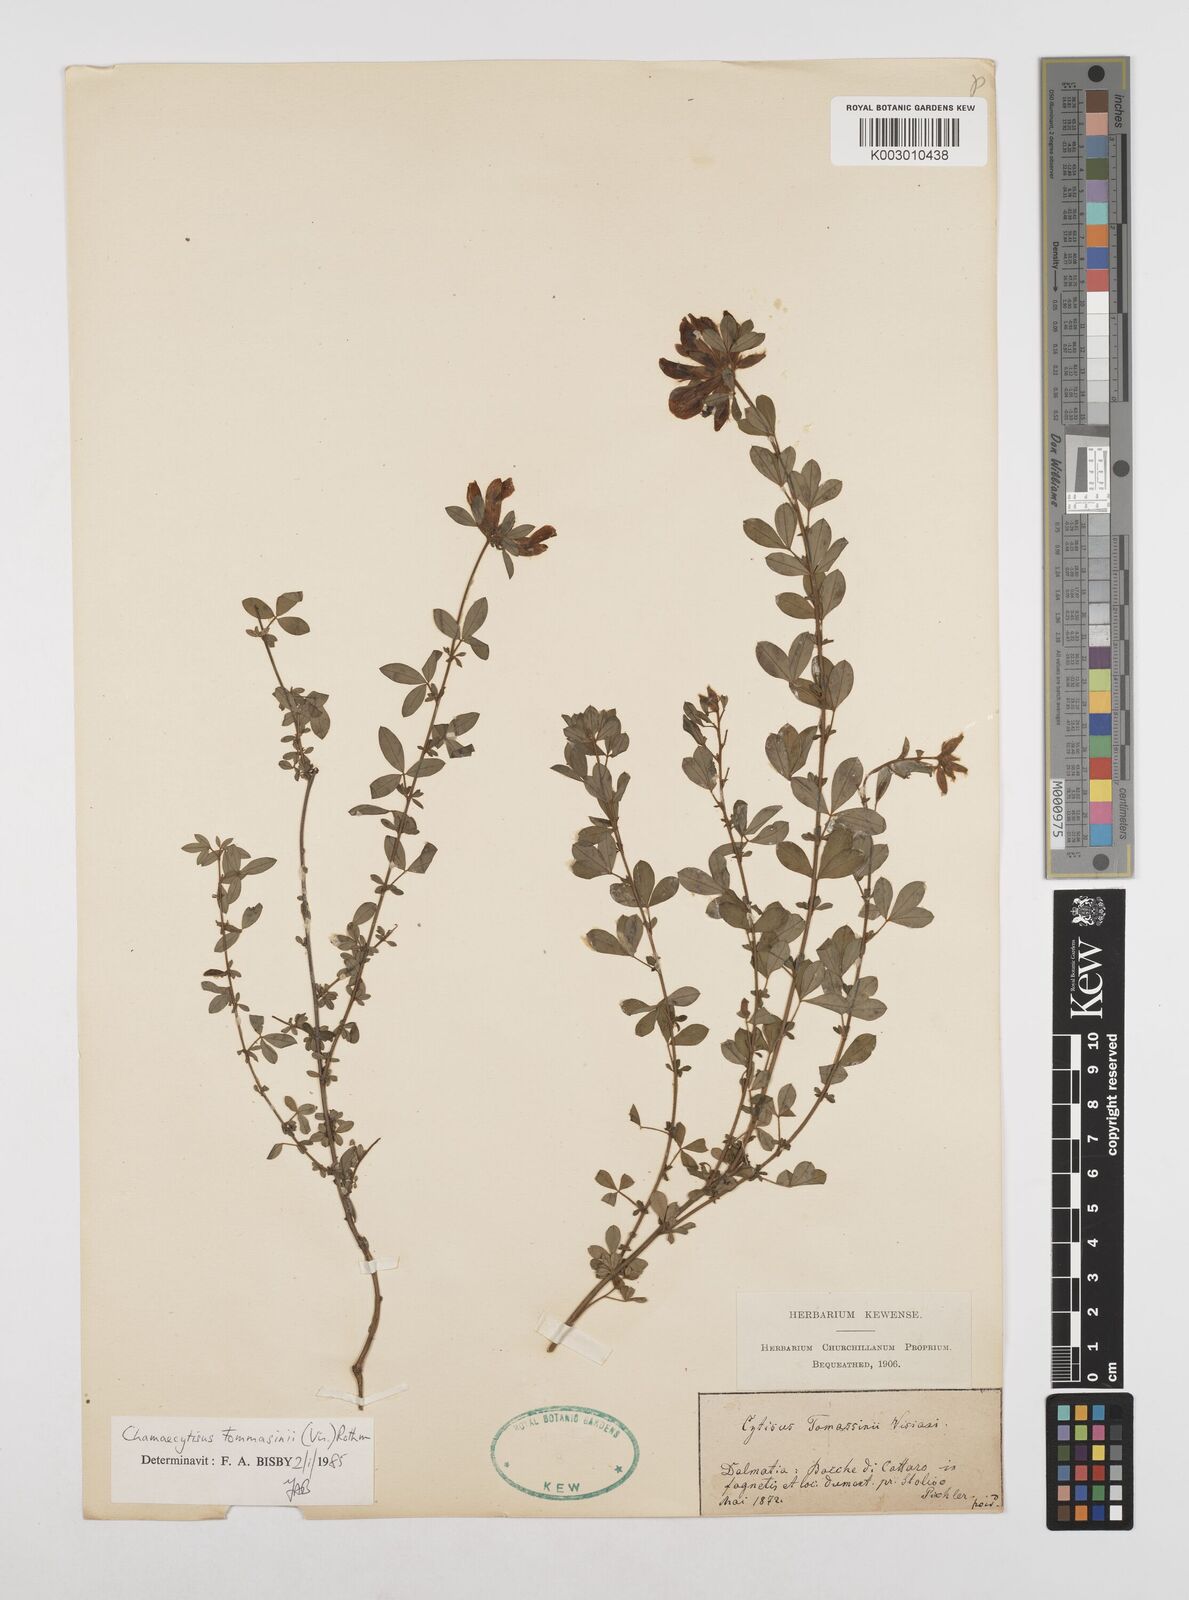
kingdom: Plantae
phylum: Tracheophyta
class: Magnoliopsida
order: Fabales
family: Fabaceae
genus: Chamaecytisus
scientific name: Chamaecytisus tommasinii
